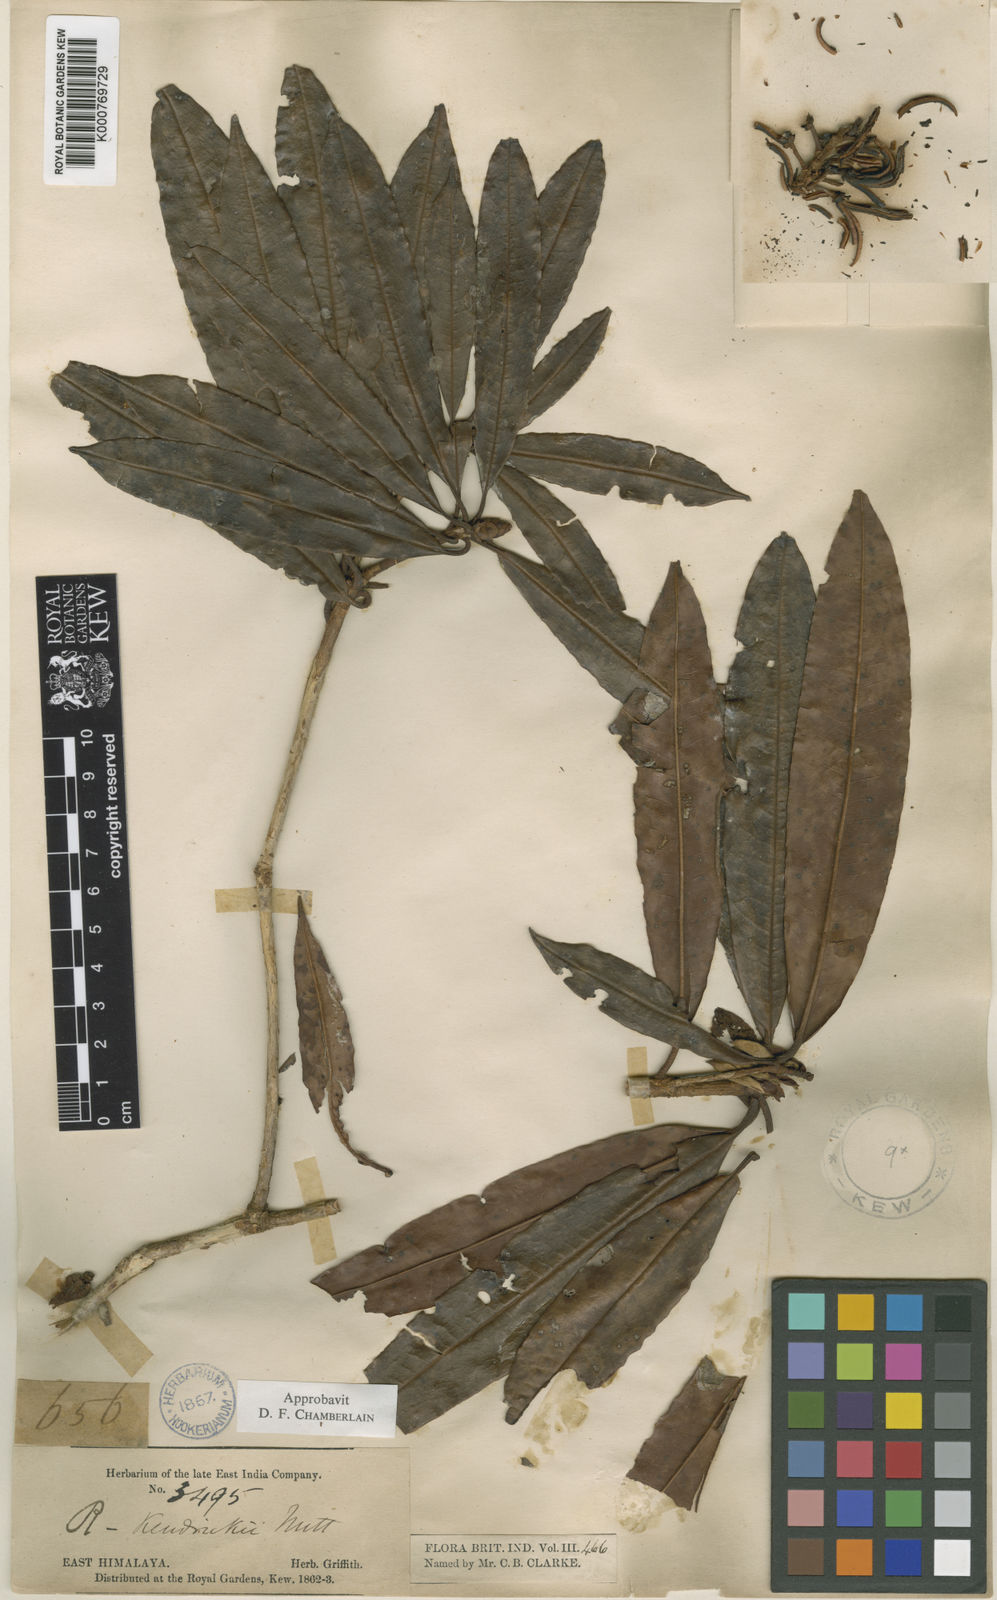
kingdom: Plantae
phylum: Tracheophyta
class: Magnoliopsida
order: Ericales
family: Ericaceae
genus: Rhododendron
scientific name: Rhododendron kendrickii
